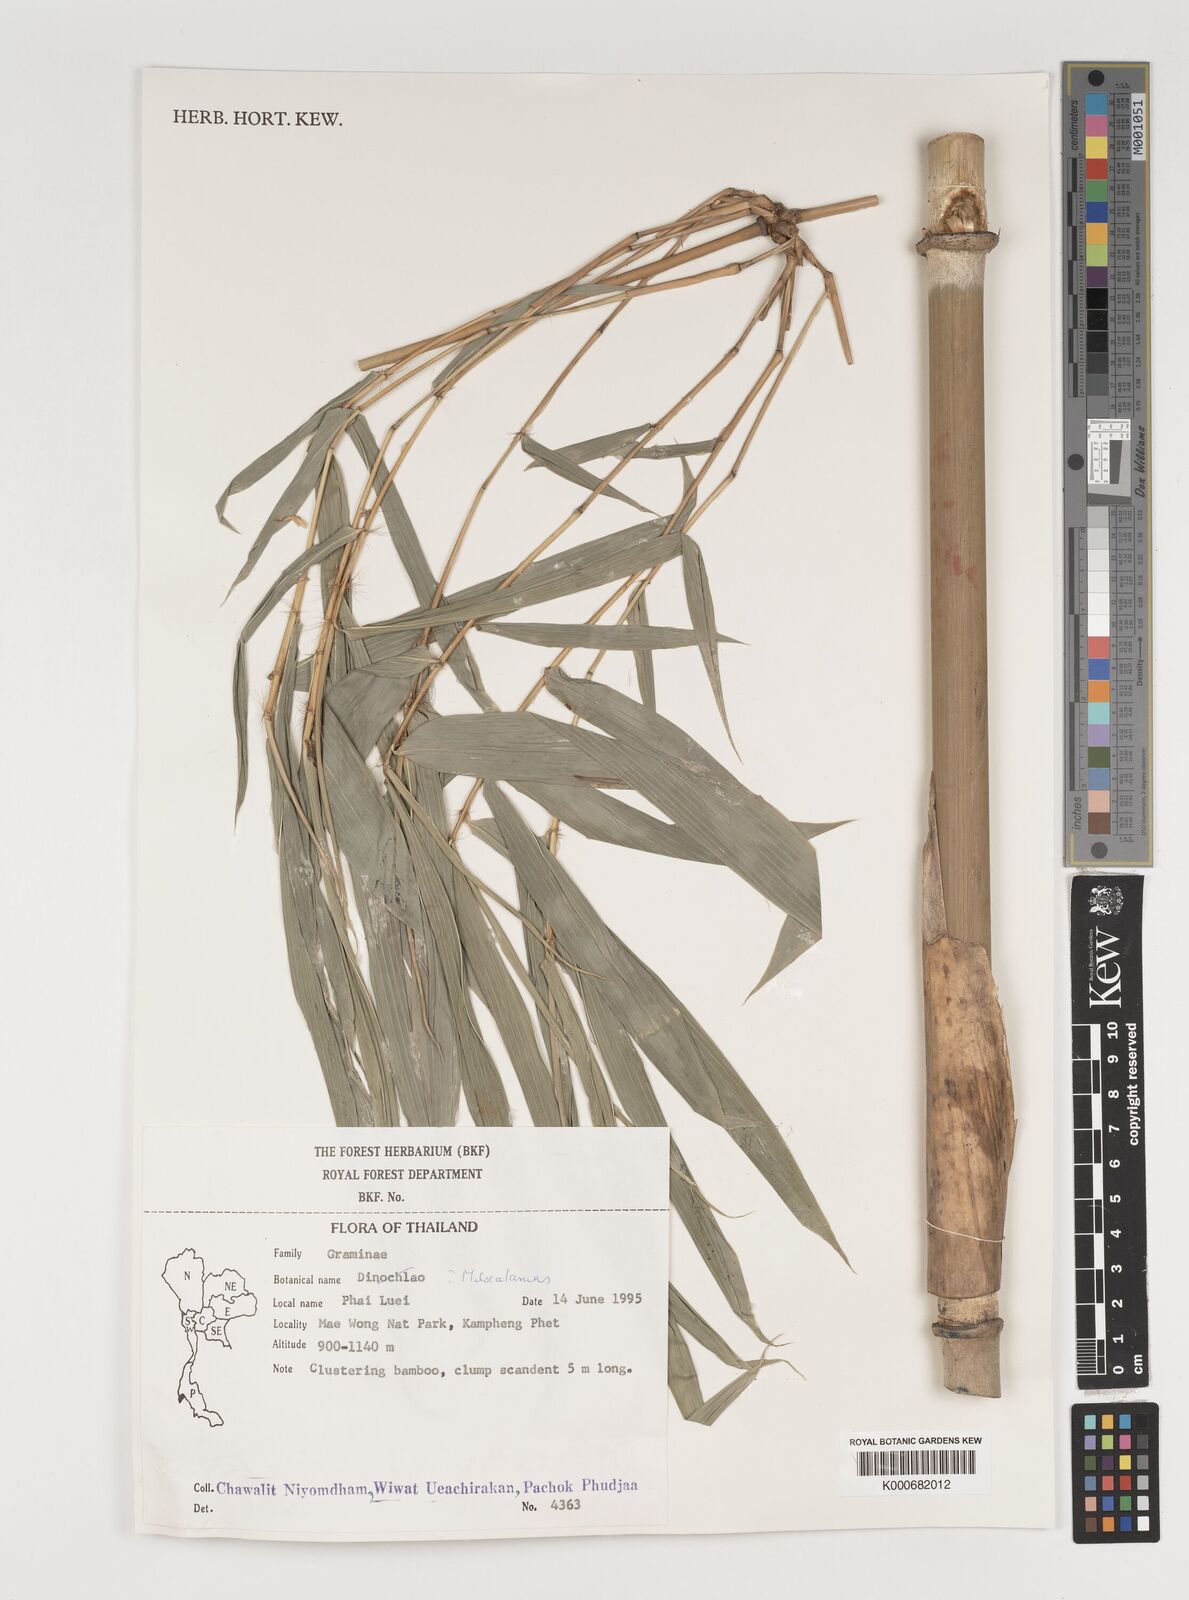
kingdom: Plantae
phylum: Tracheophyta
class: Liliopsida
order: Poales
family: Poaceae
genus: Melocalamus
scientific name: Melocalamus
